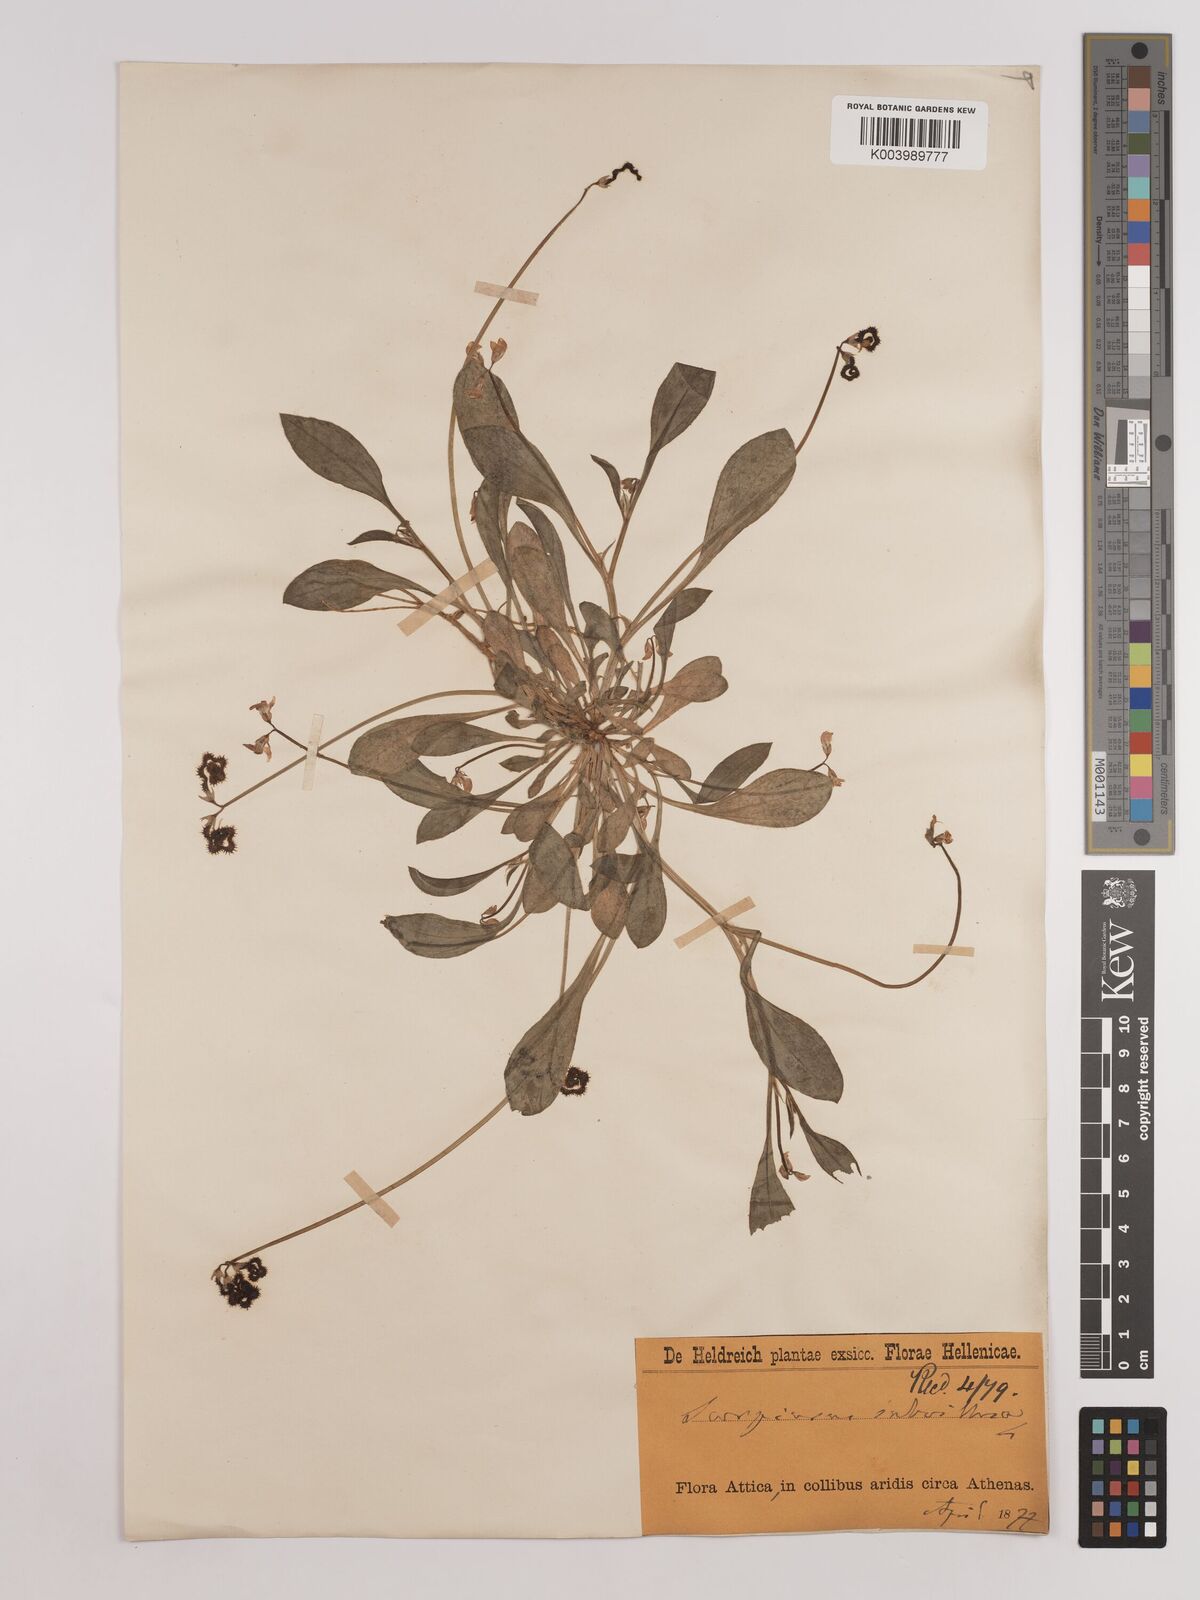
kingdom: Plantae
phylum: Tracheophyta
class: Magnoliopsida
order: Fabales
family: Fabaceae
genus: Scorpiurus
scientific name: Scorpiurus muricatus
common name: Caterpillar-plant
